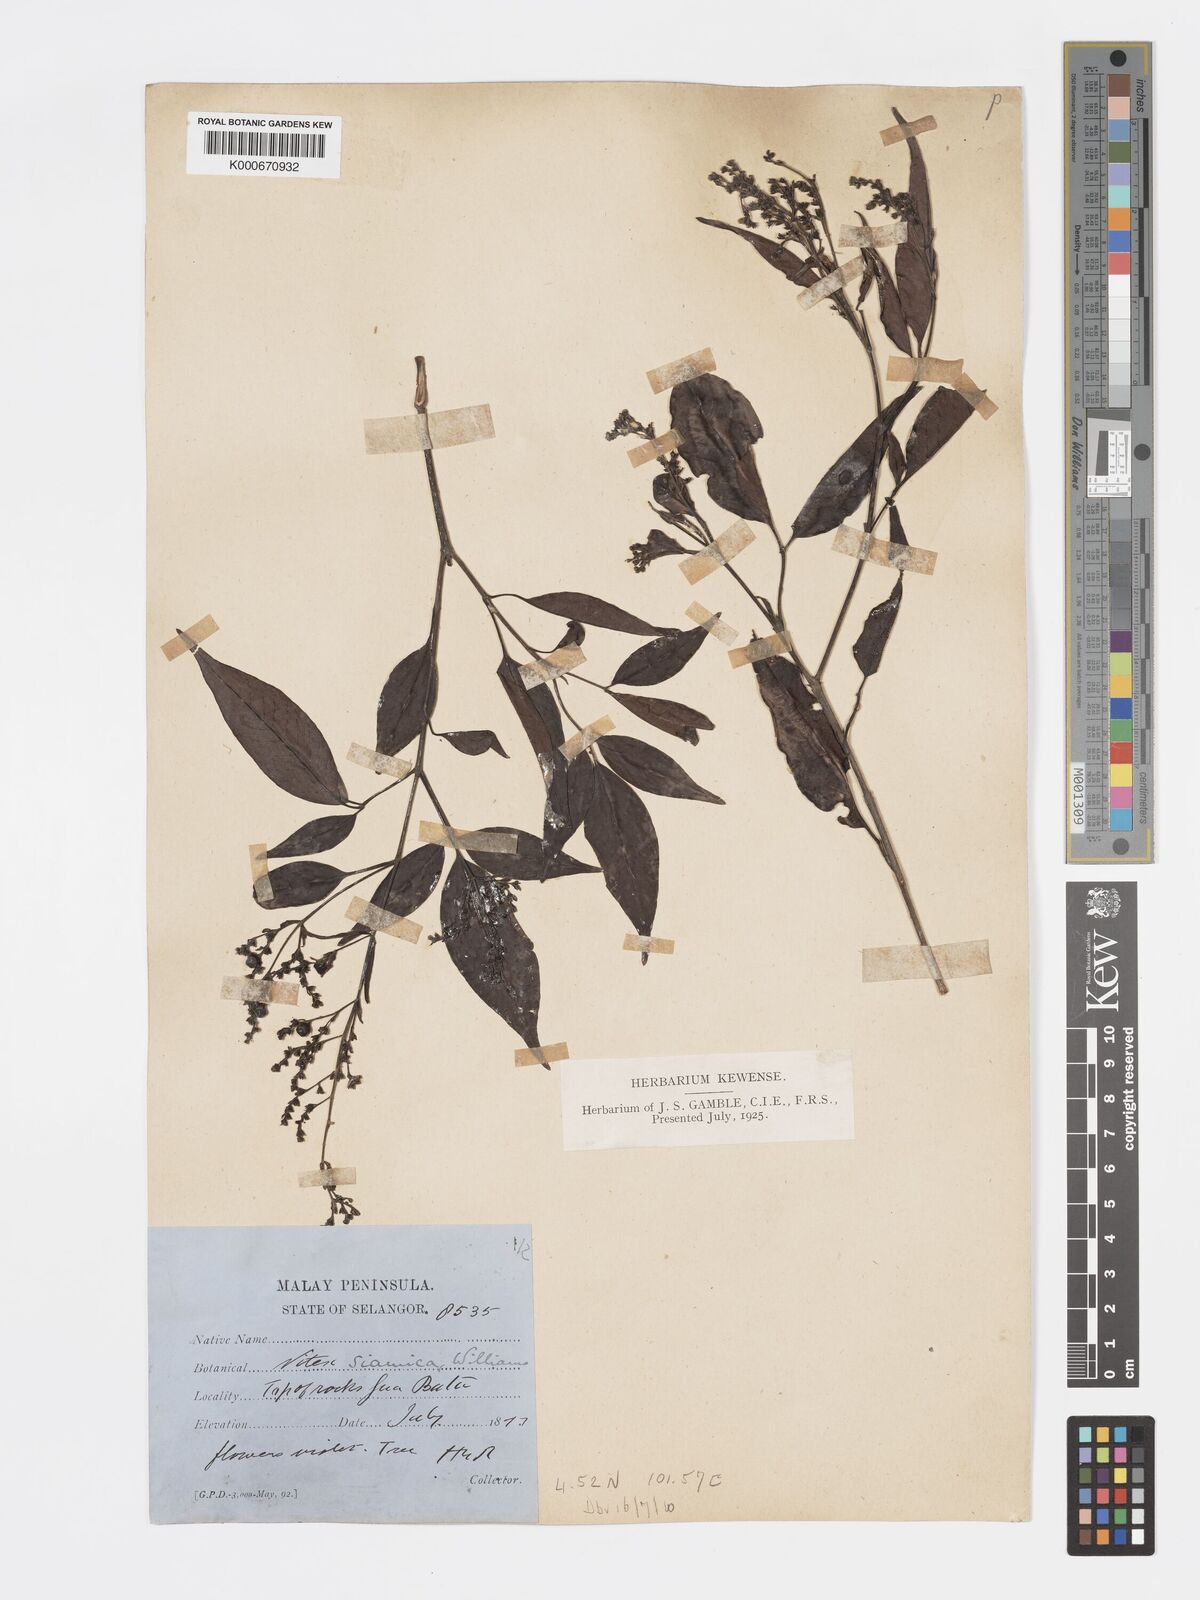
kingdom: Plantae
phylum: Tracheophyta
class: Magnoliopsida
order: Lamiales
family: Lamiaceae
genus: Vitex
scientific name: Vitex siamica
